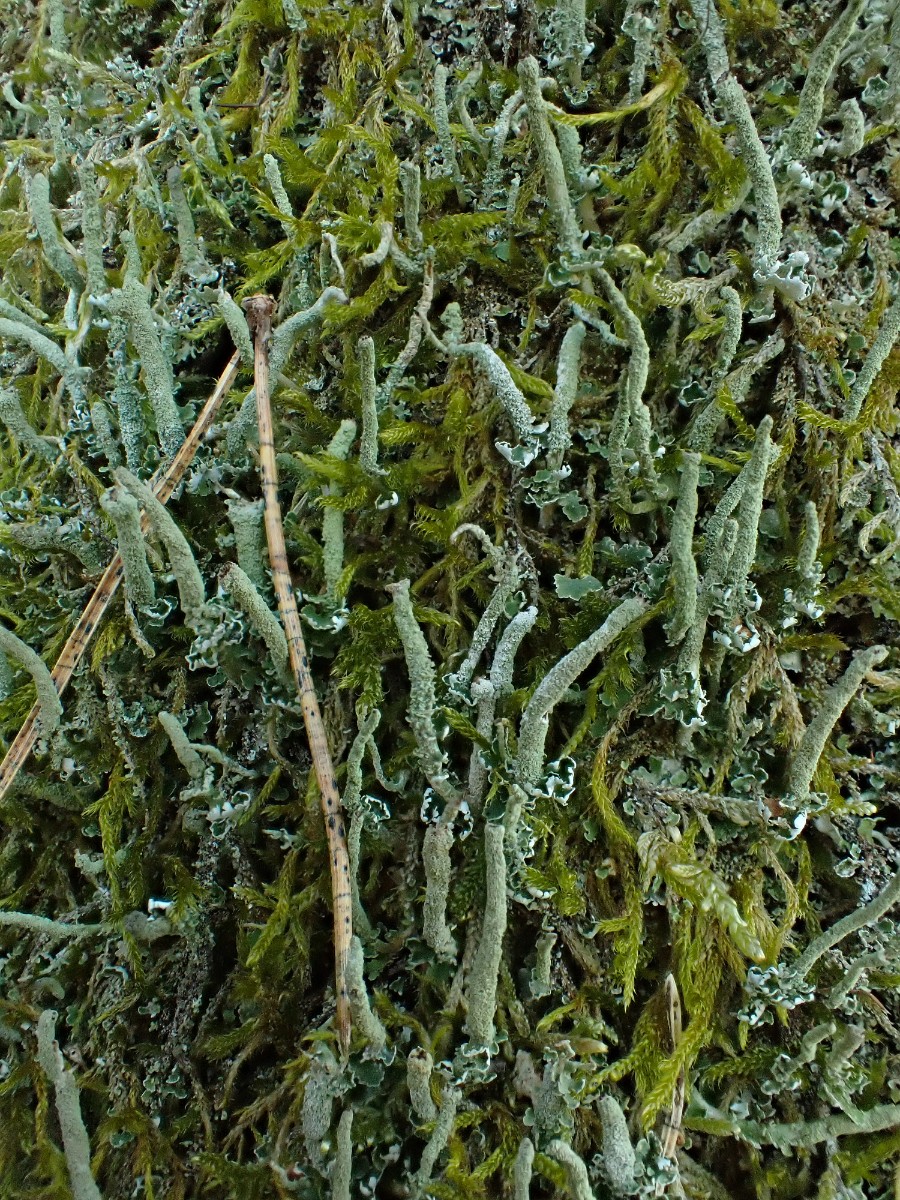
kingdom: Fungi
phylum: Ascomycota
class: Lecanoromycetes
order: Lecanorales
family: Cladoniaceae
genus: Cladonia
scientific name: Cladonia ochrochlora
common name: stød-bægerlav
